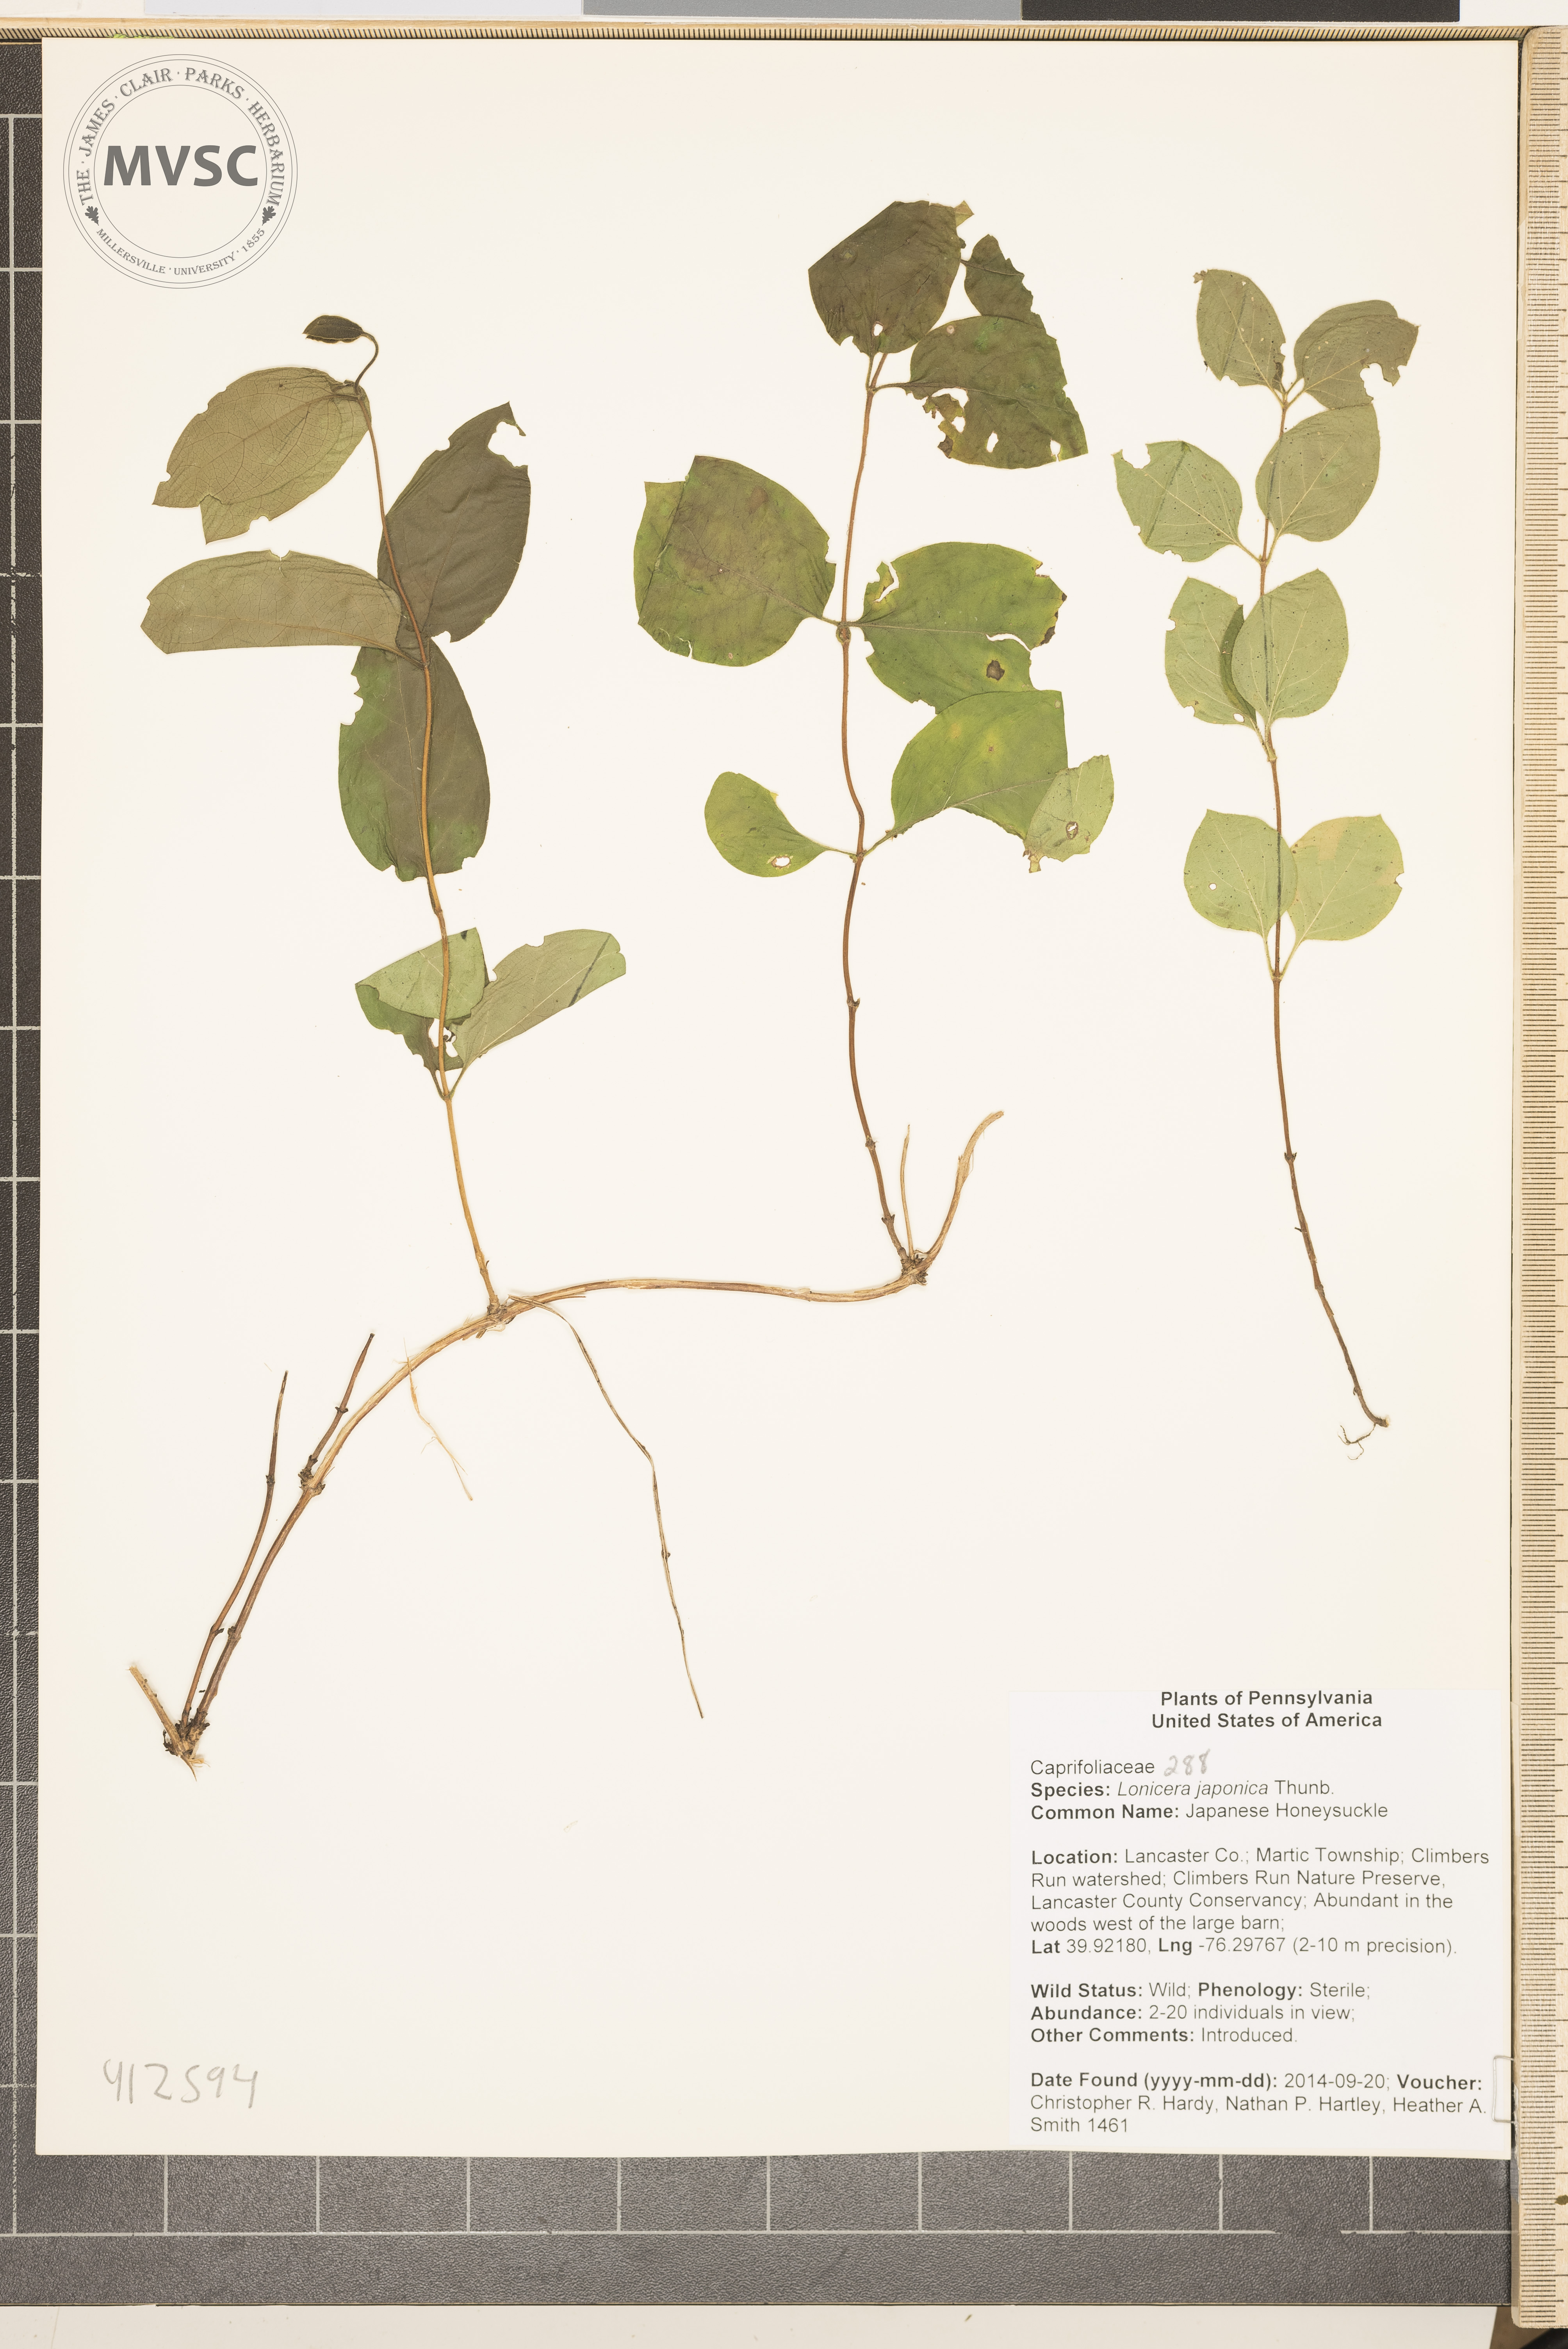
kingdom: Plantae
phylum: Tracheophyta
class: Magnoliopsida
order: Dipsacales
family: Caprifoliaceae
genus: Lonicera
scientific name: Lonicera japonica
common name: Japanese honeysuckle
